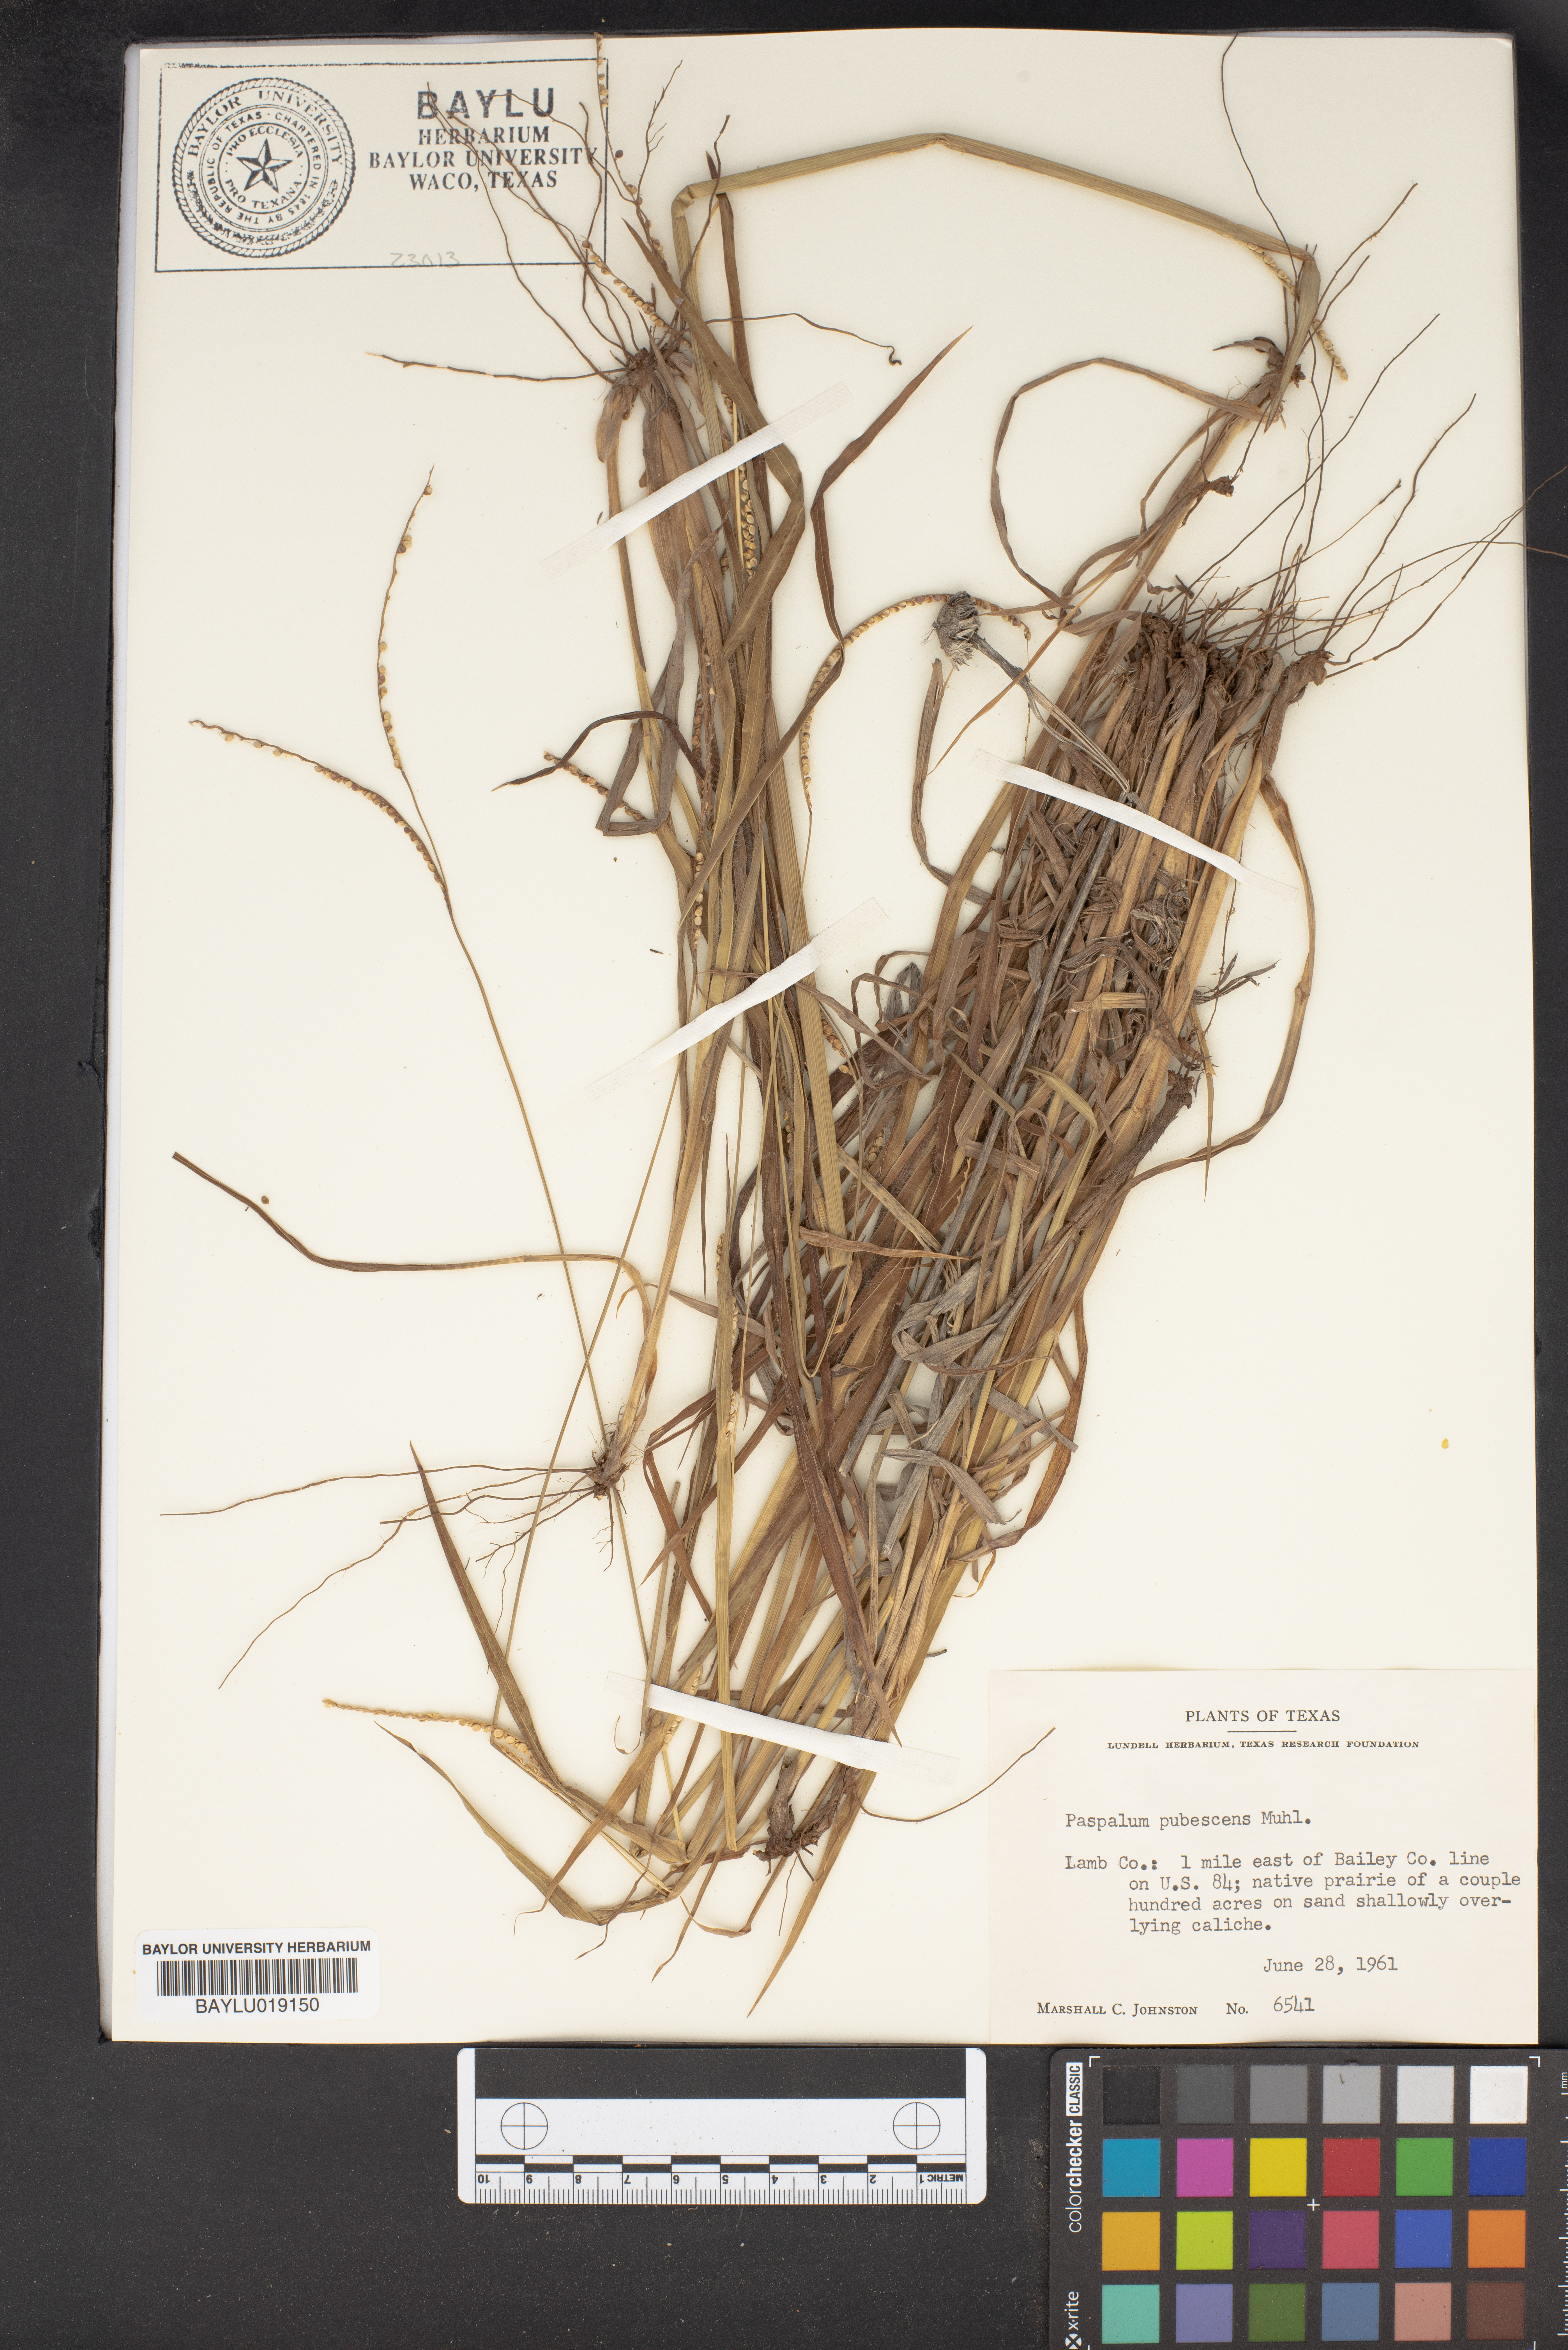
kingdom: Plantae
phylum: Tracheophyta
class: Liliopsida
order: Poales
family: Poaceae
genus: Paspalum
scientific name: Paspalum setaceum
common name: Slender paspalum
